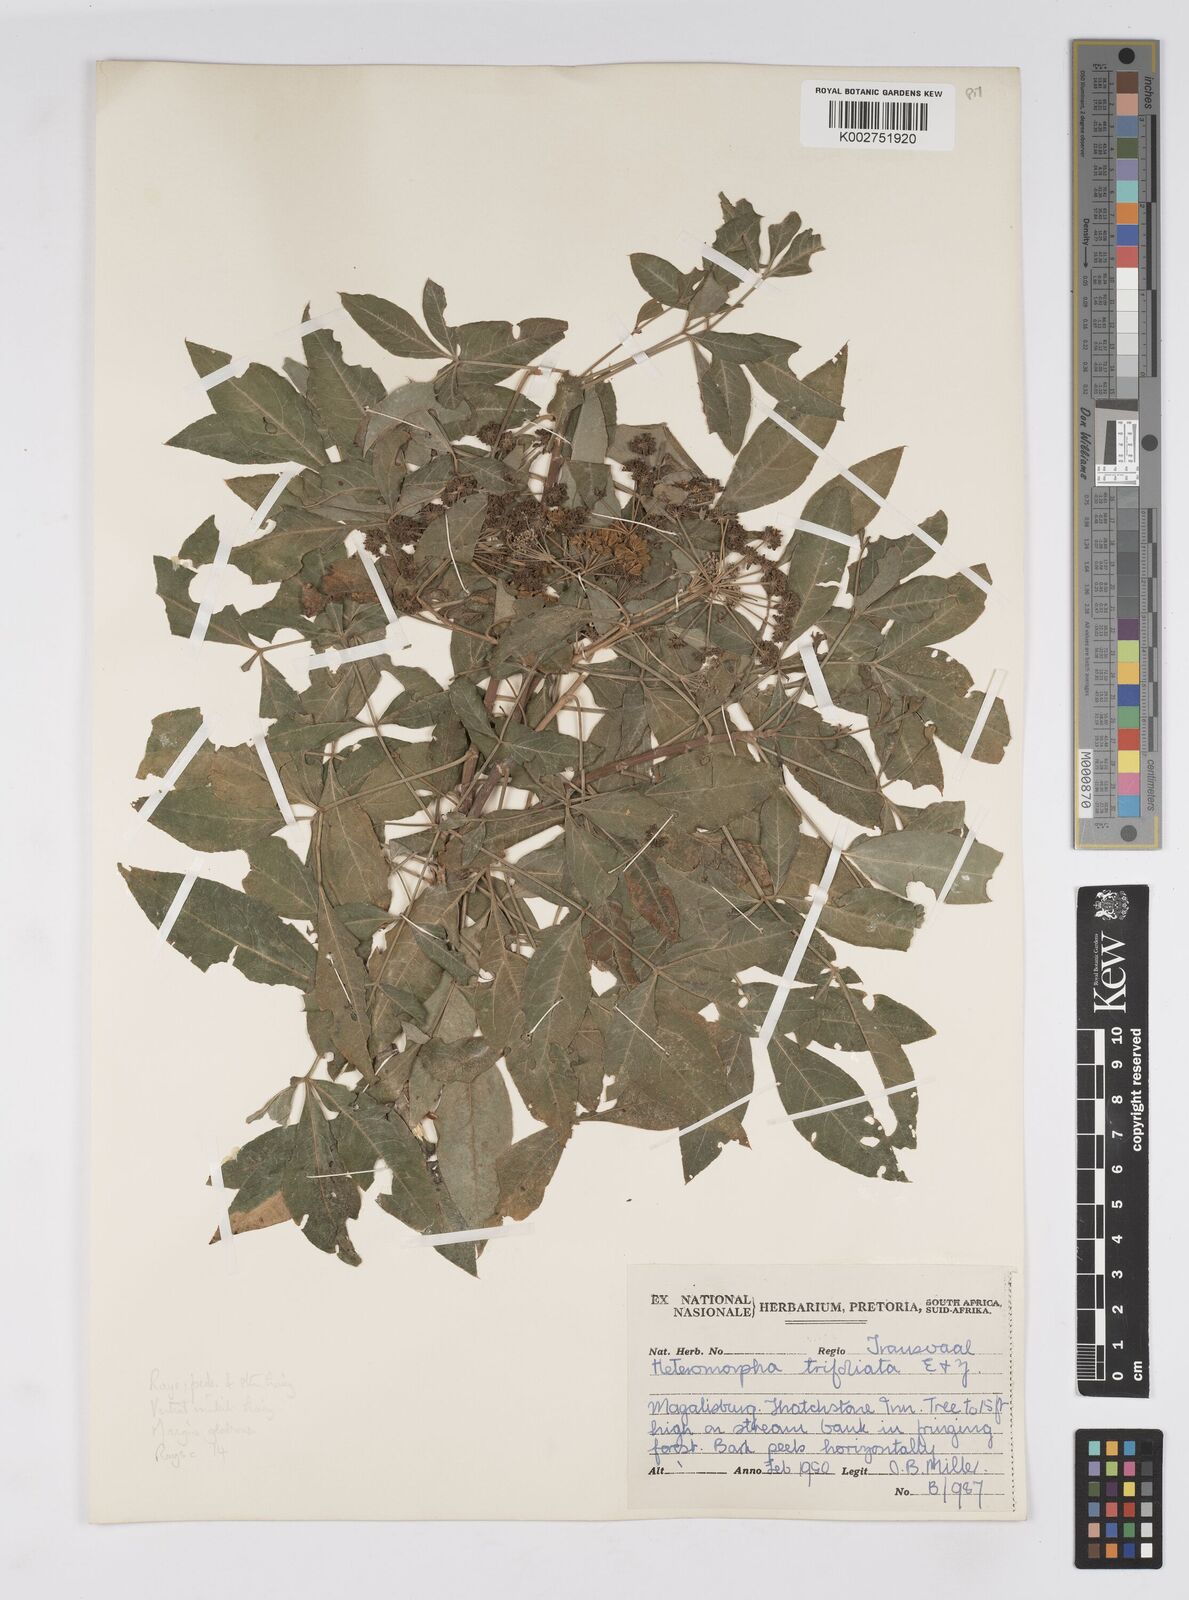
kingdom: Plantae
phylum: Tracheophyta
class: Magnoliopsida
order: Apiales
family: Apiaceae
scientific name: Apiaceae
